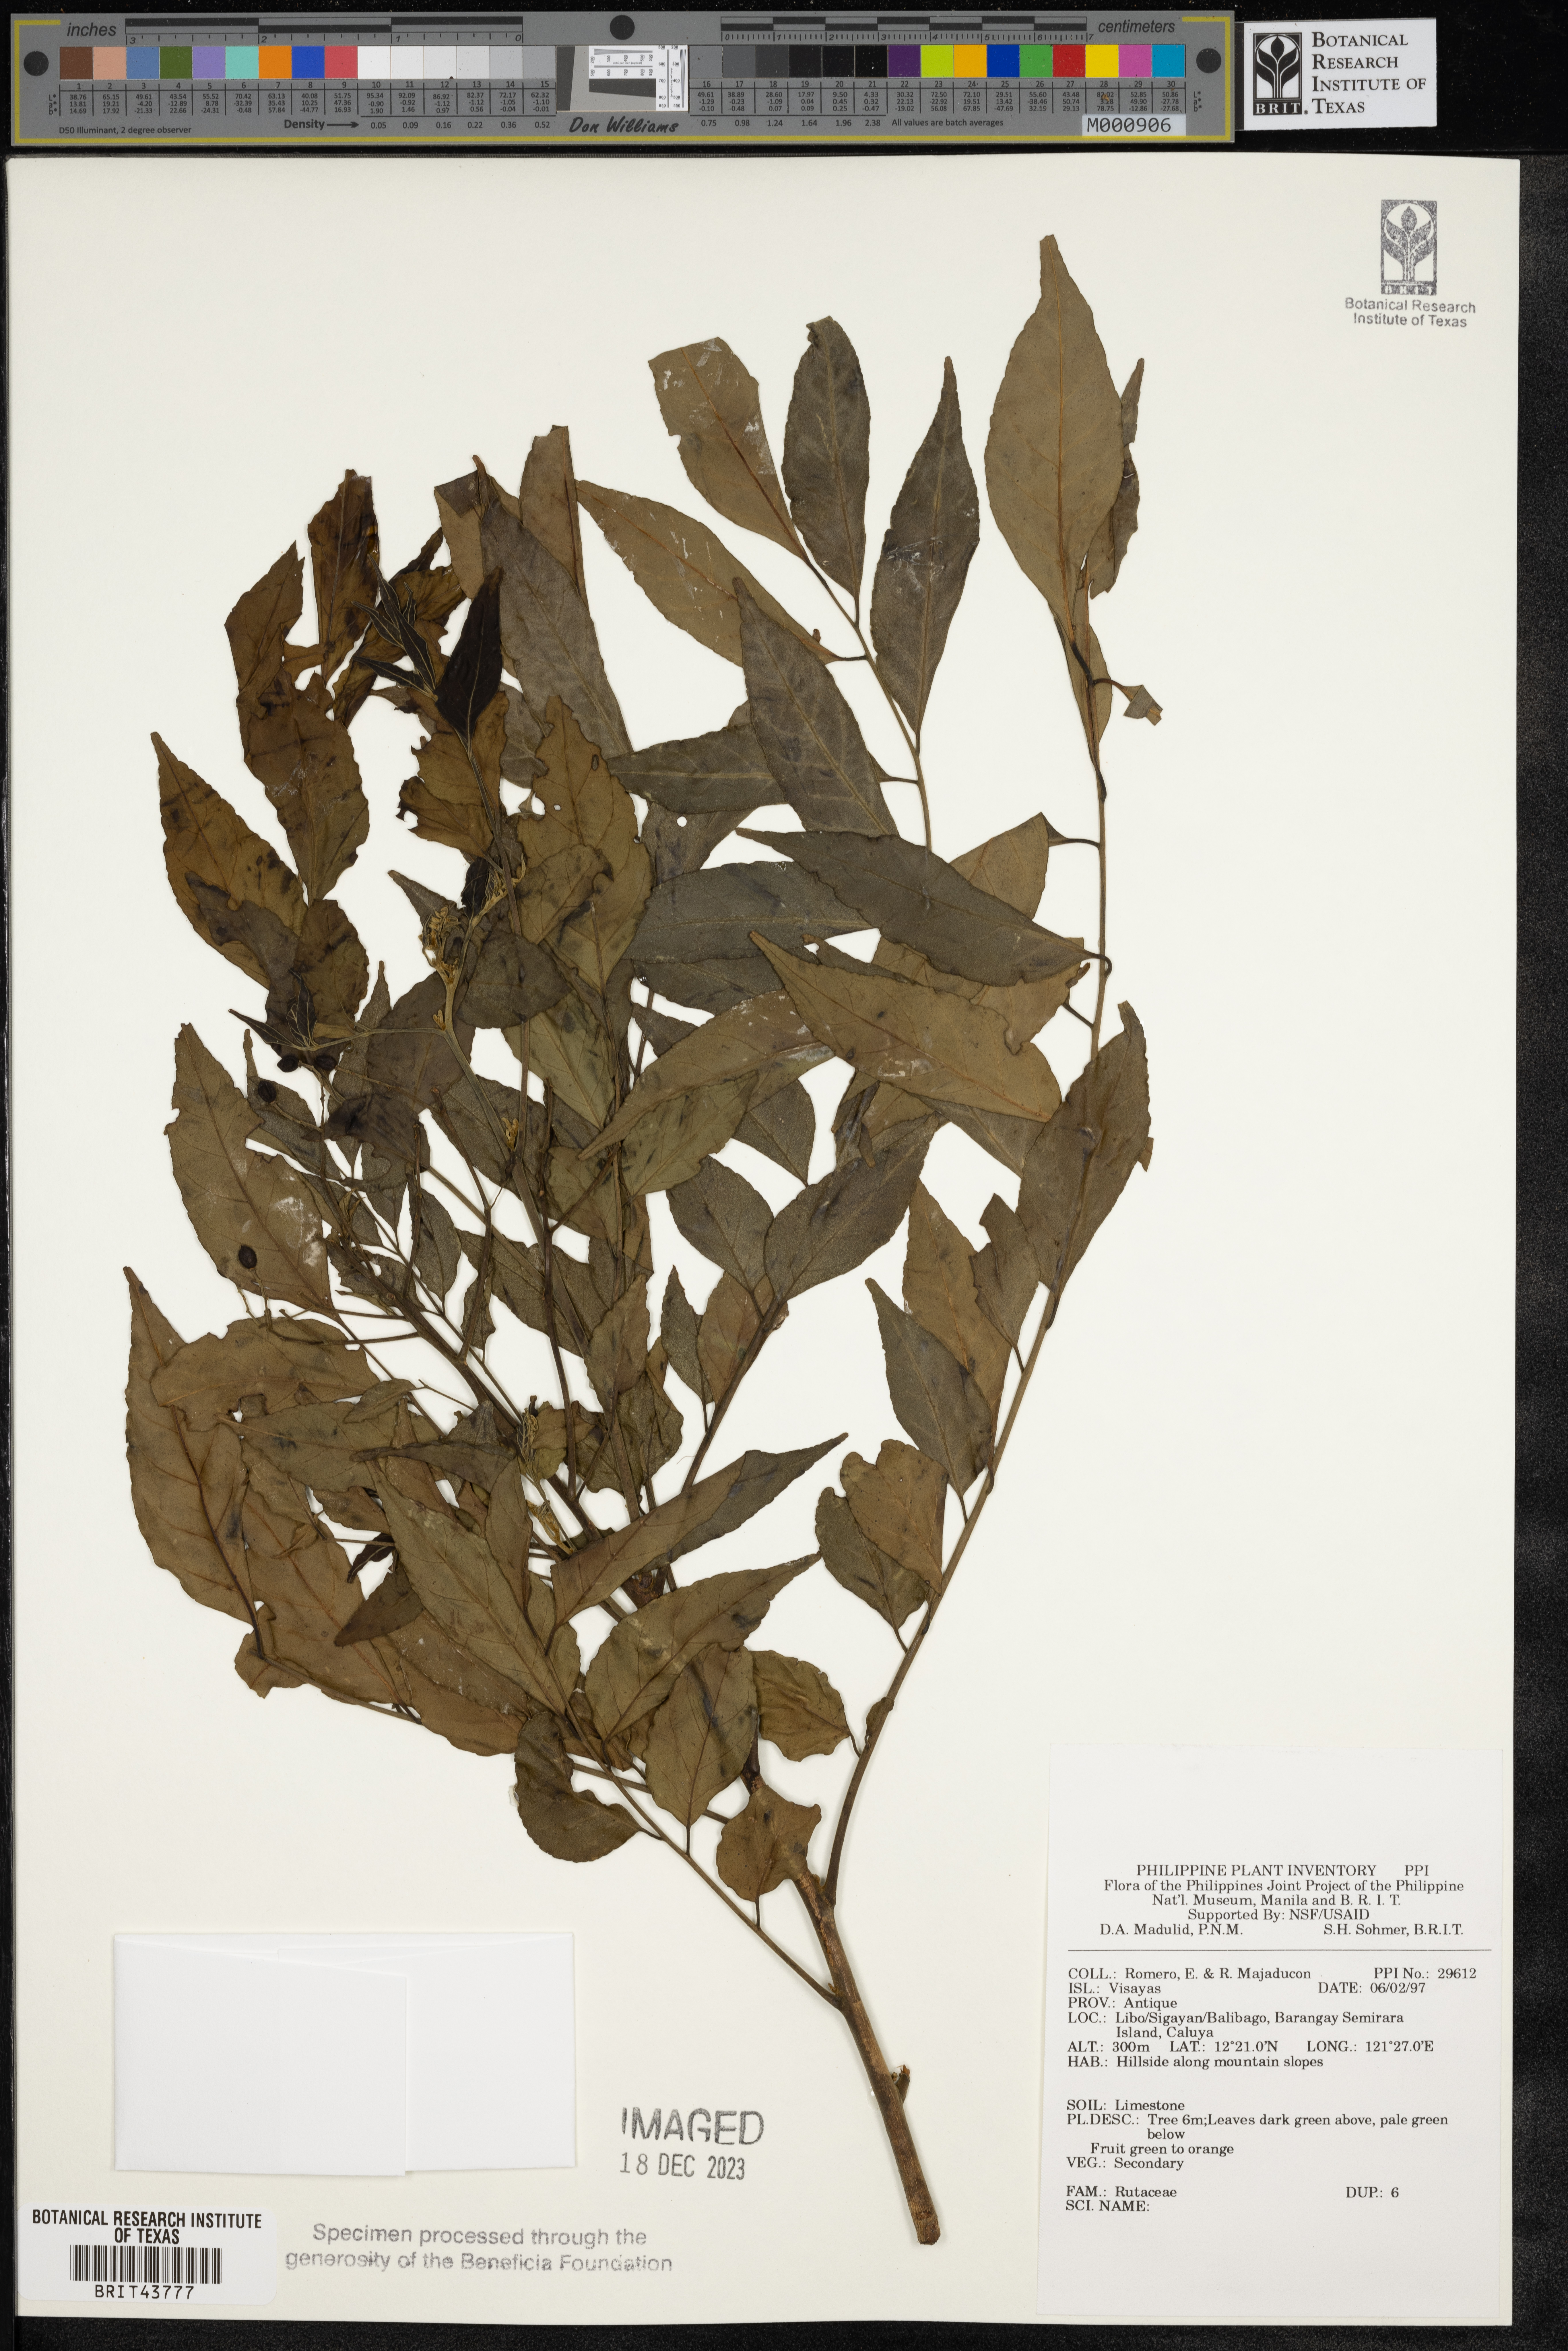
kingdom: Plantae
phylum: Tracheophyta
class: Magnoliopsida
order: Sapindales
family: Rutaceae
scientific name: Rutaceae
